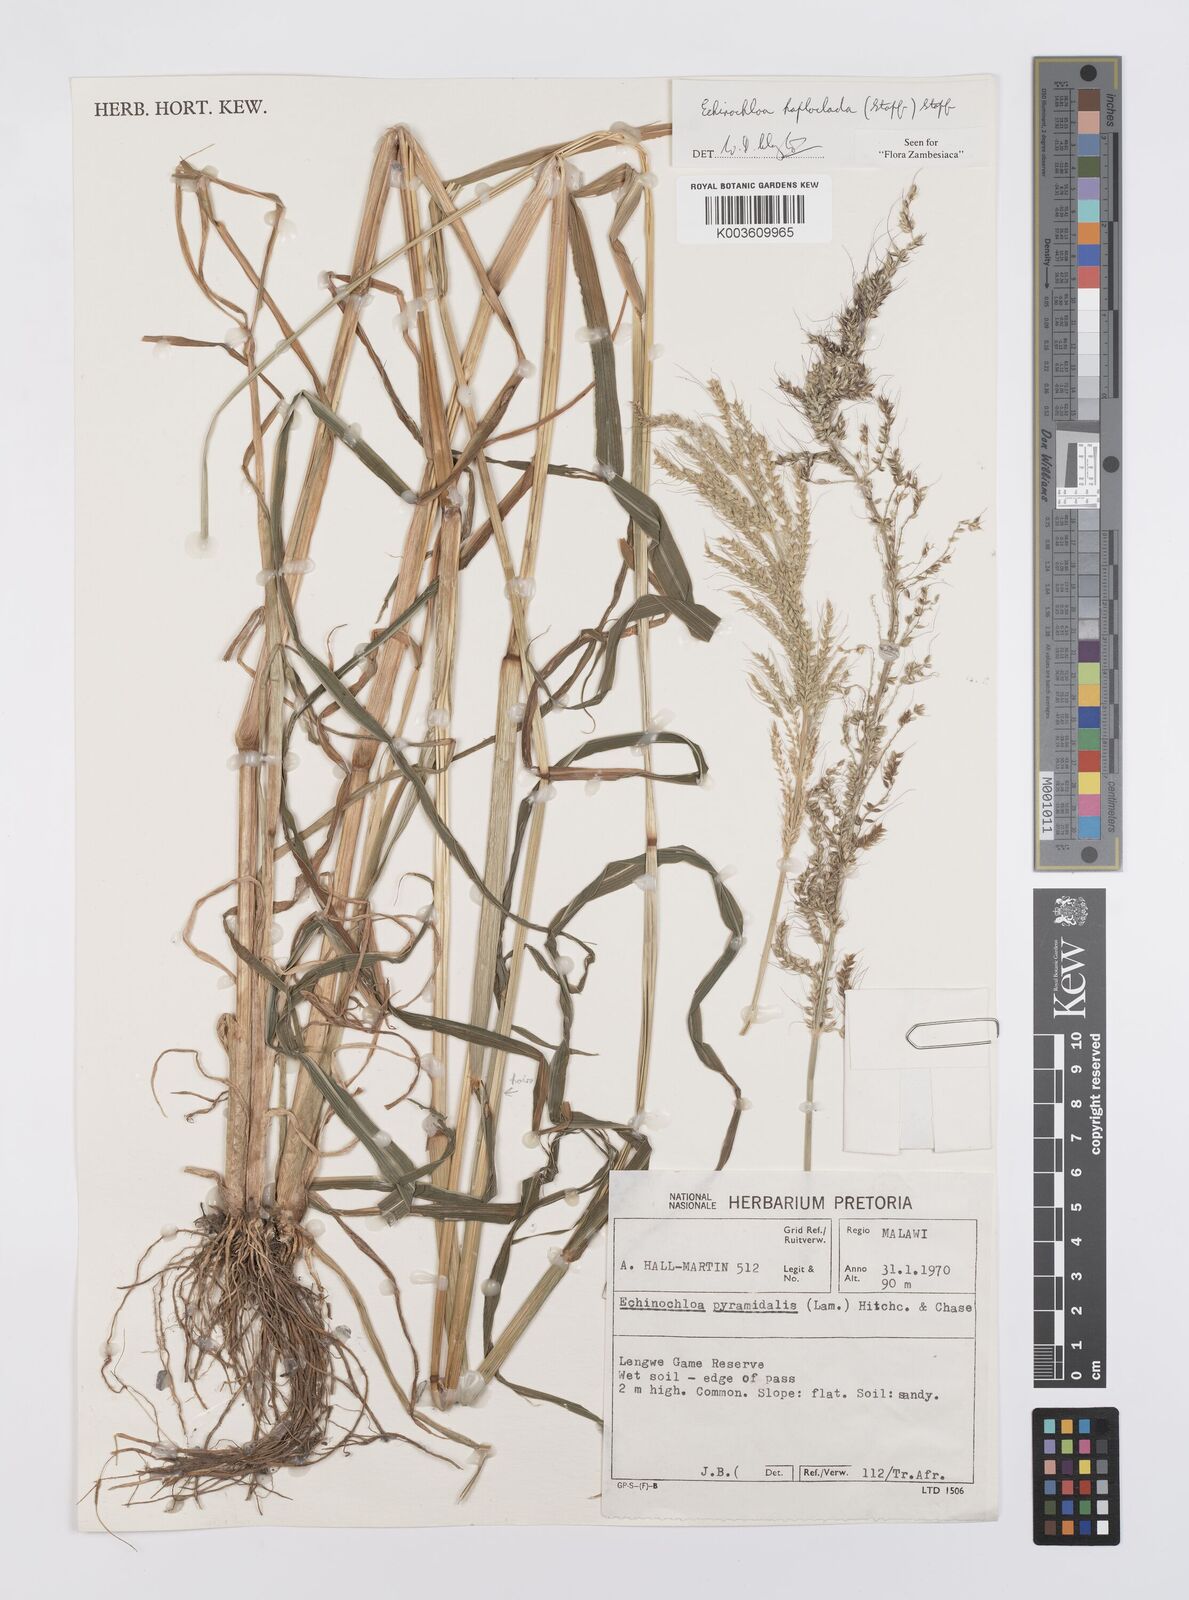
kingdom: Plantae
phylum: Tracheophyta
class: Liliopsida
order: Poales
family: Poaceae
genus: Echinochloa
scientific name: Echinochloa haploclada
